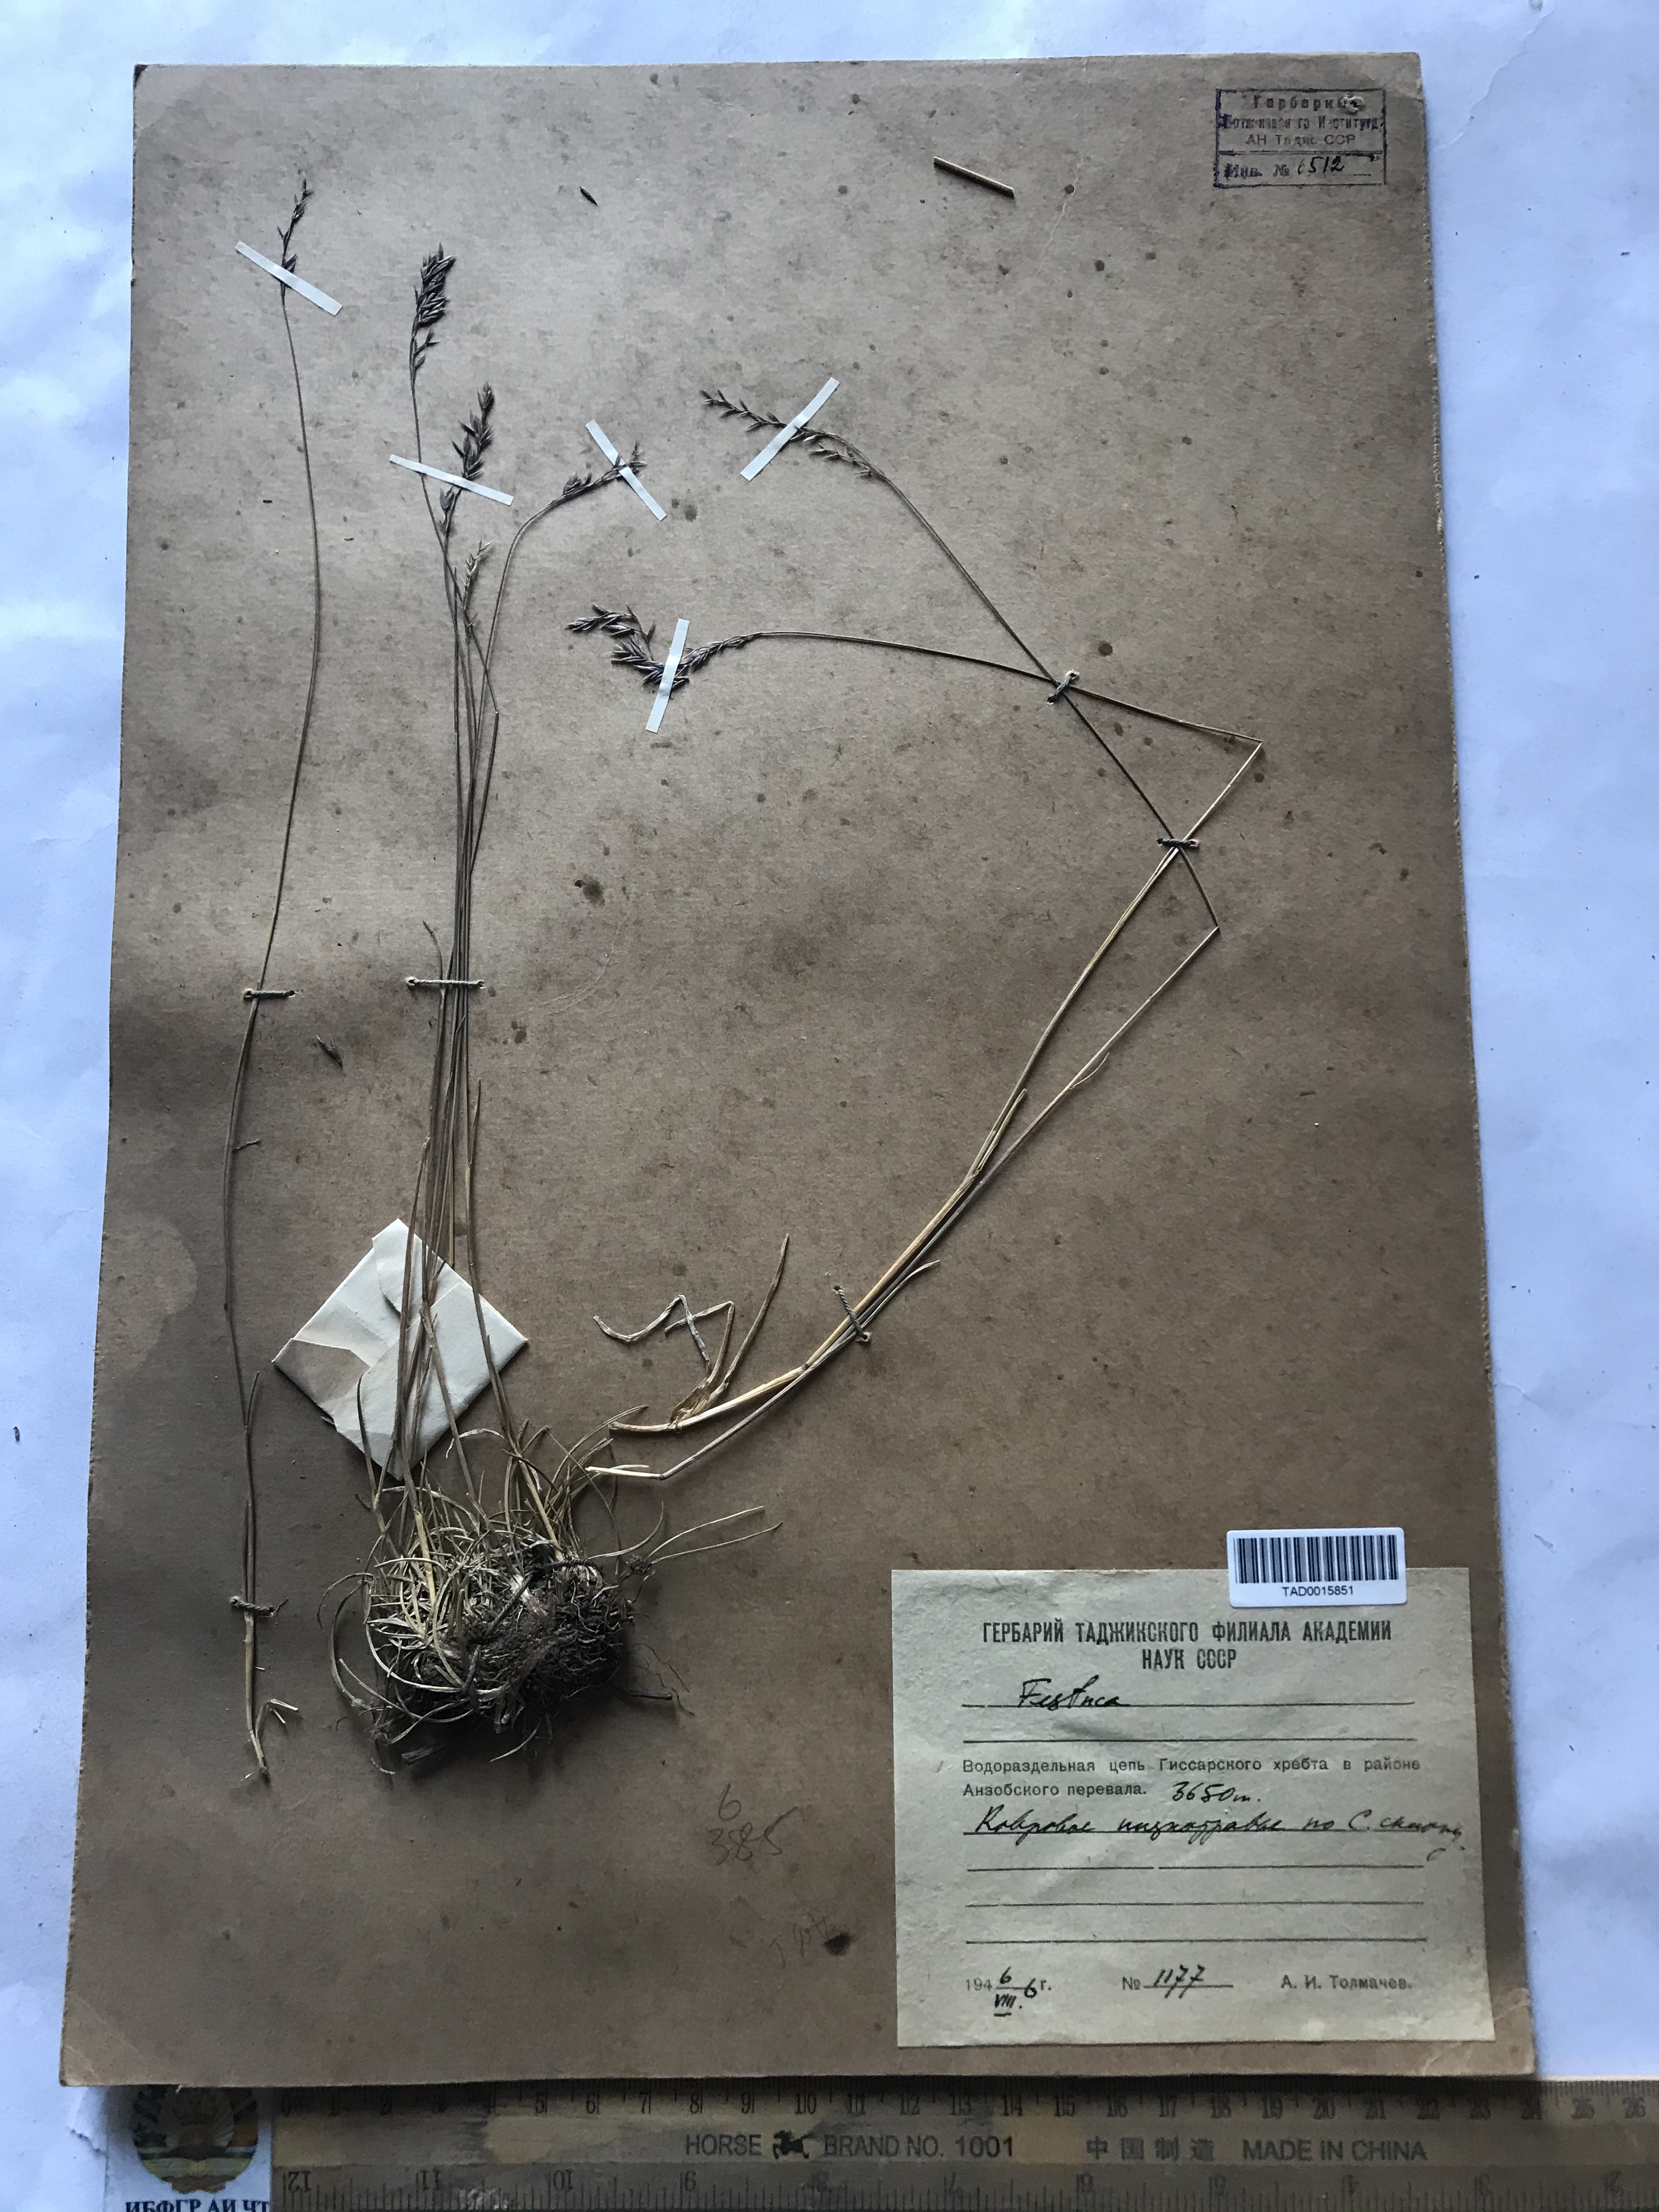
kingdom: Plantae
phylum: Tracheophyta
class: Liliopsida
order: Poales
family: Poaceae
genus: Festuca
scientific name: Festuca rubra
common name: Red fescue
